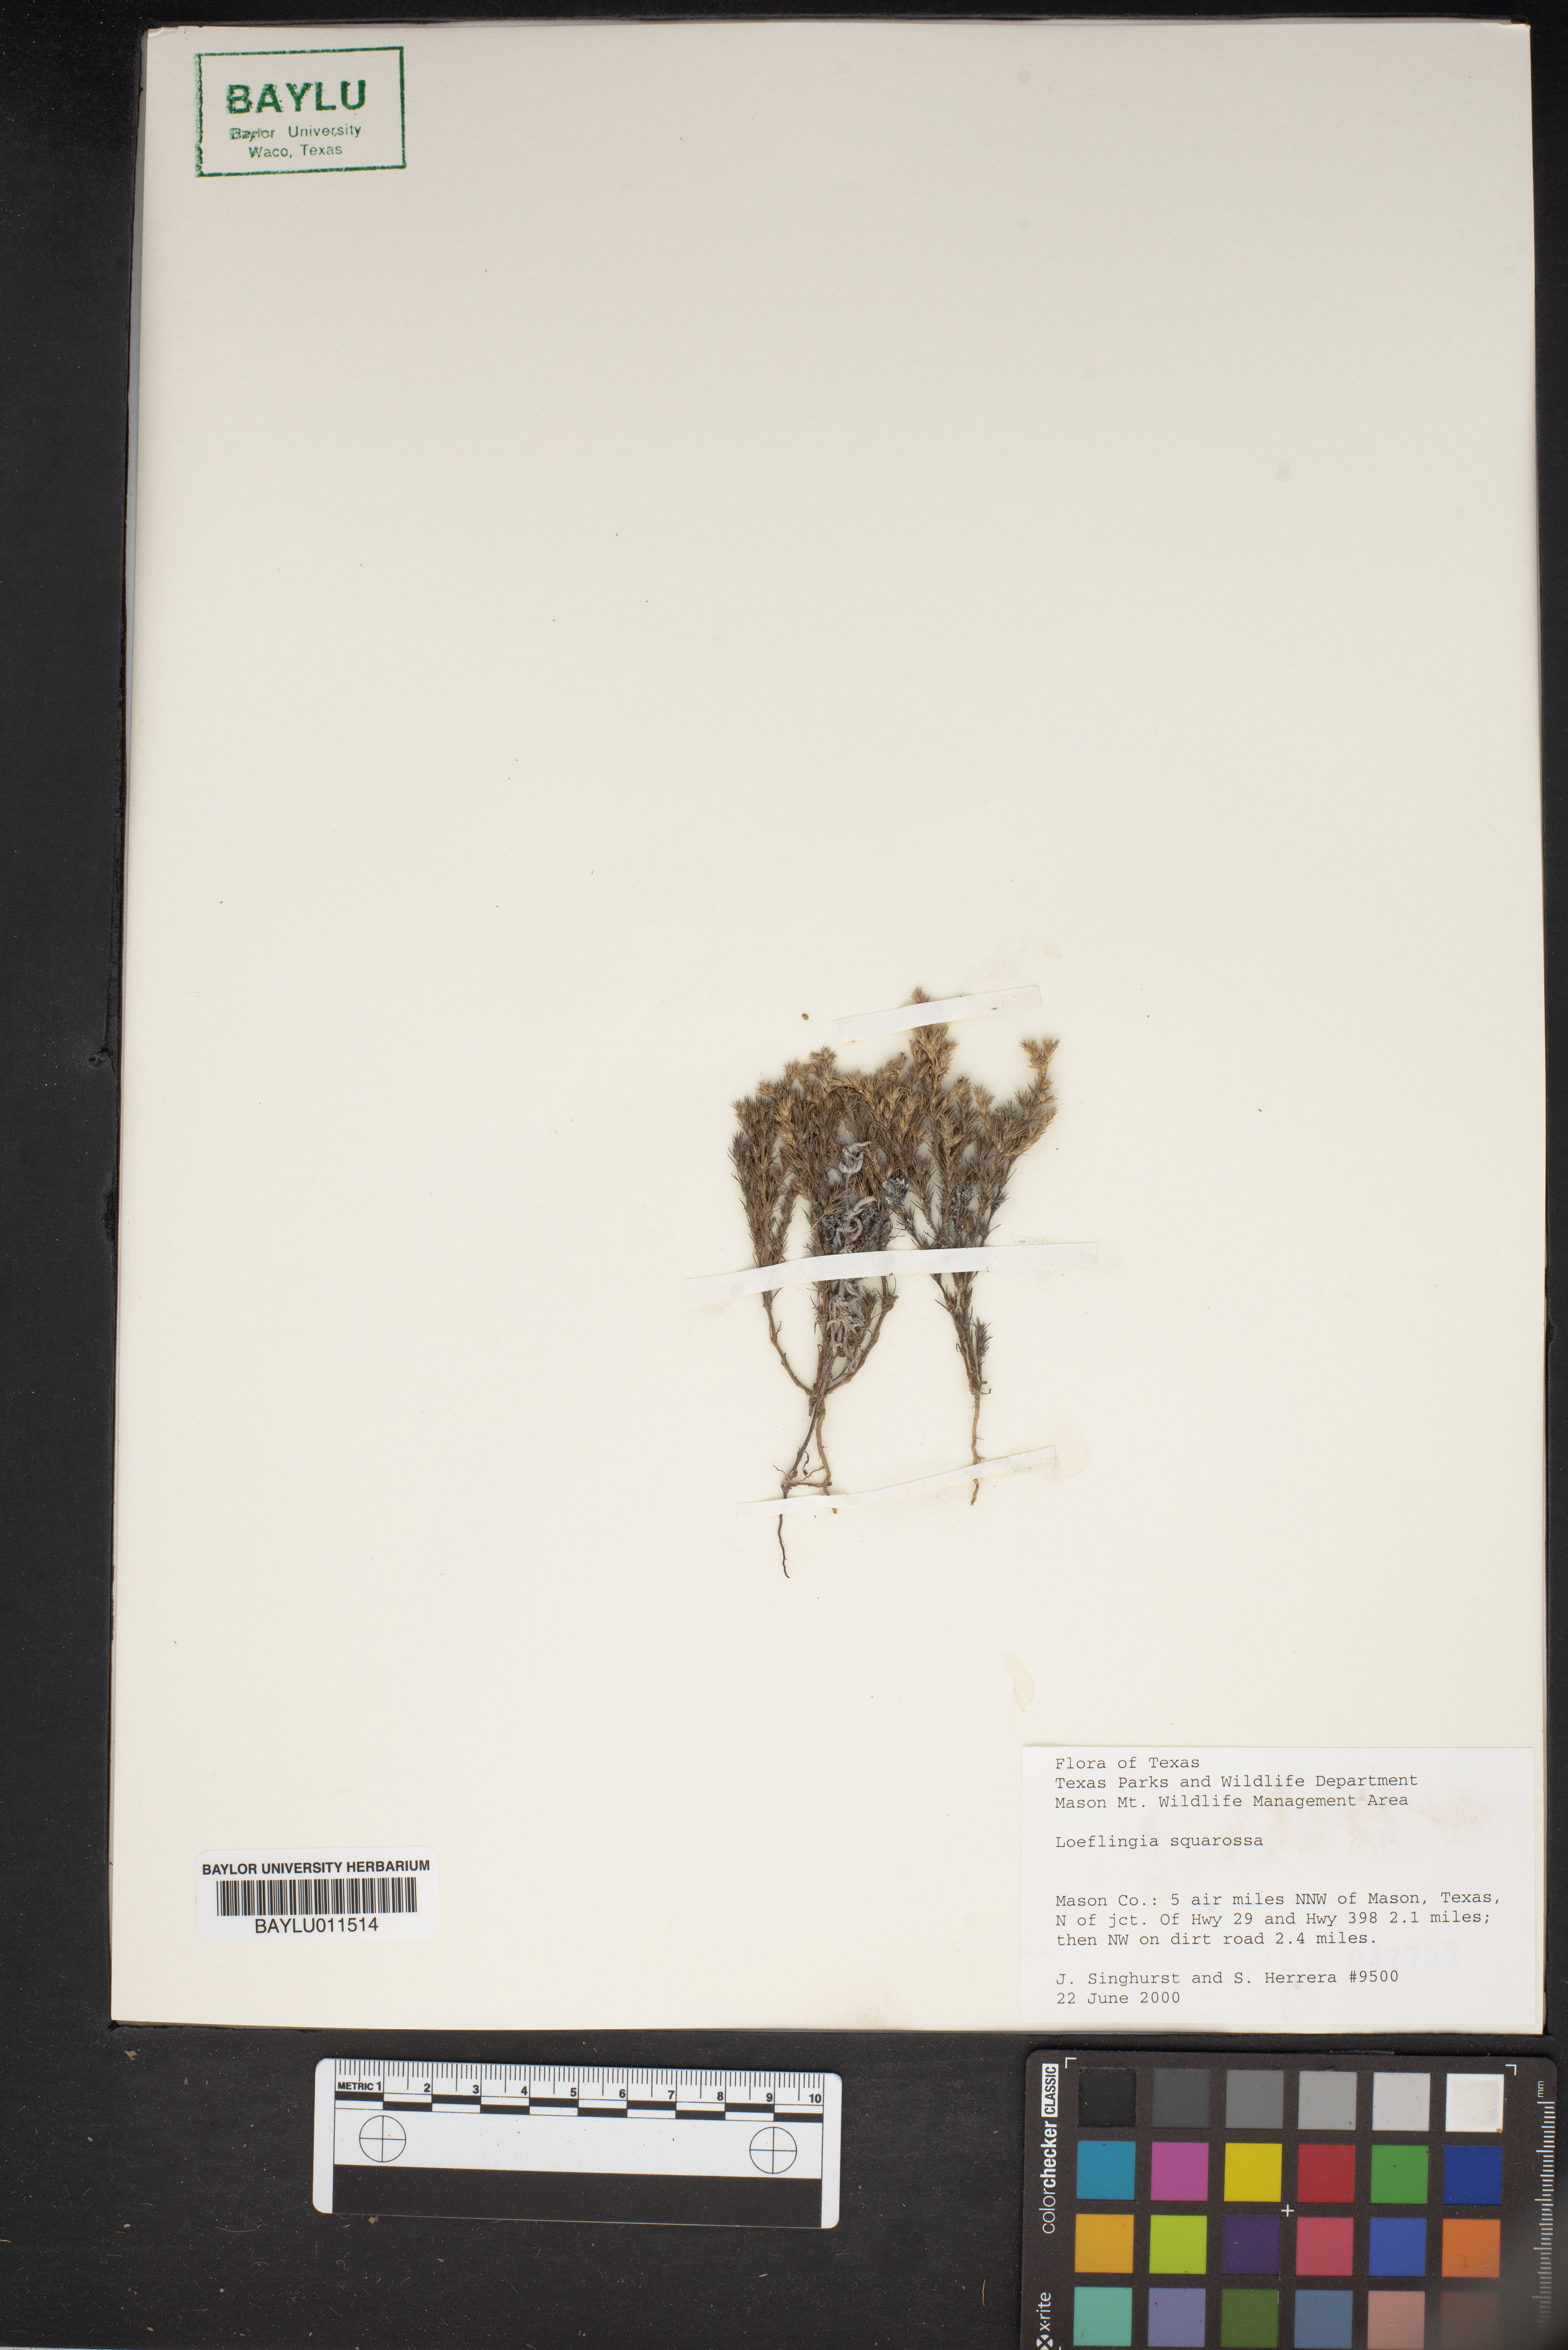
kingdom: Plantae
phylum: Tracheophyta
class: Magnoliopsida
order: Caryophyllales
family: Caryophyllaceae
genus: Loeflingia
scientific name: Loeflingia squarrosa
